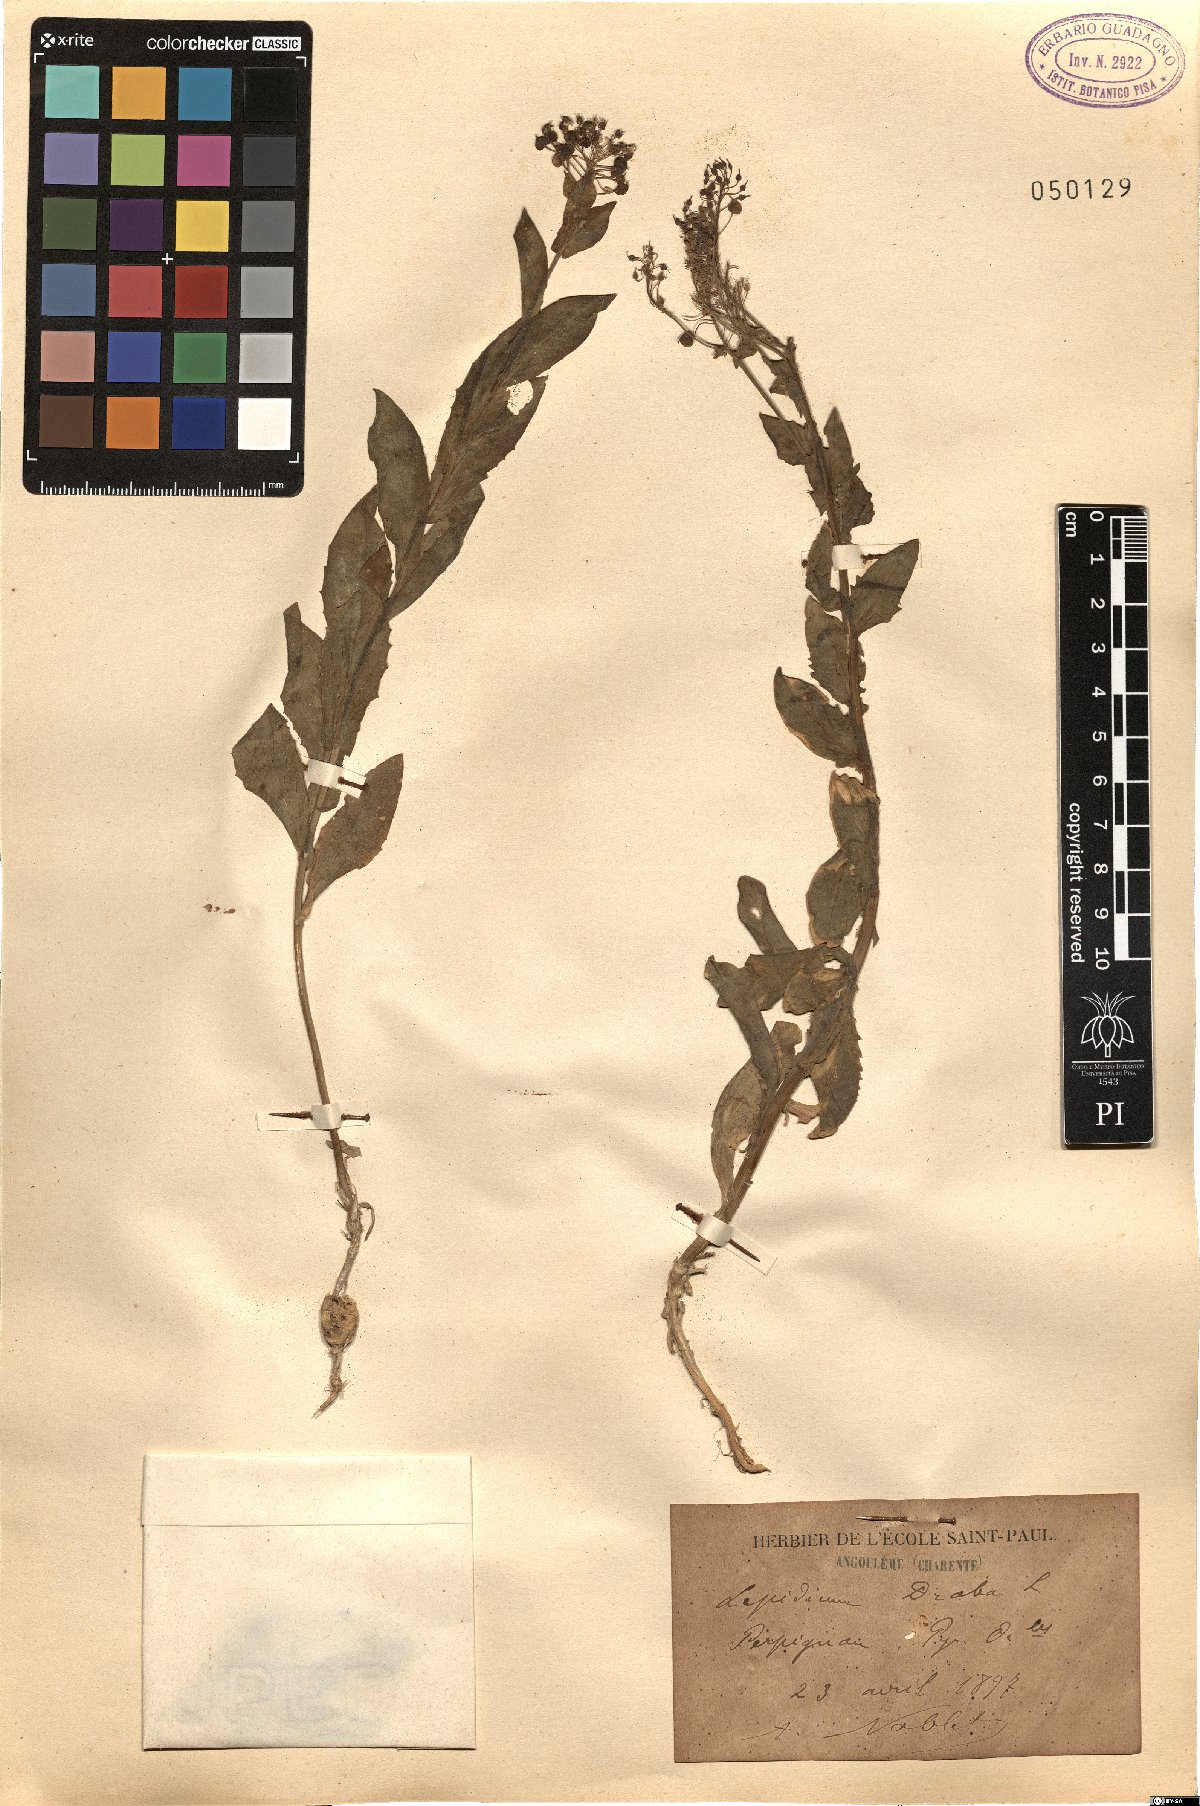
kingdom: Plantae
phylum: Tracheophyta
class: Magnoliopsida
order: Brassicales
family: Brassicaceae
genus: Lepidium
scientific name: Lepidium draba
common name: Hoary cress
